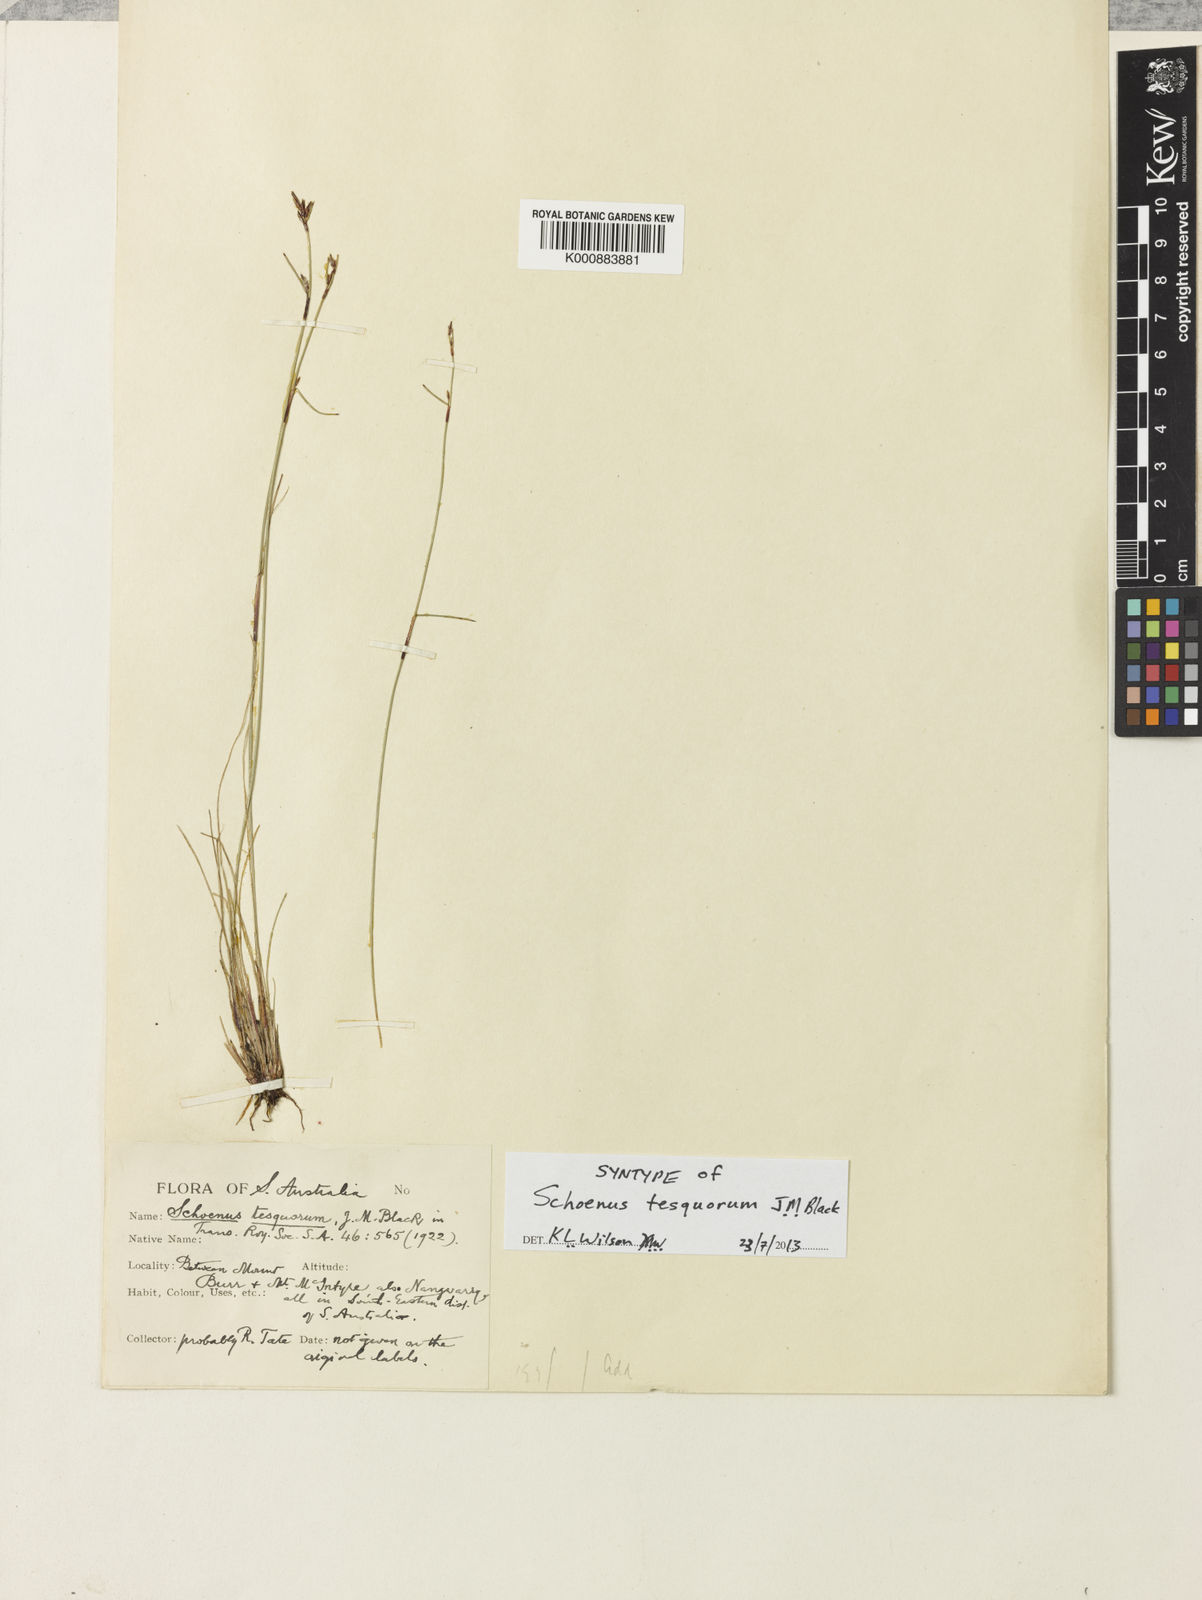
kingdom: Plantae
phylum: Tracheophyta
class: Liliopsida
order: Poales
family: Cyperaceae
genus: Schoenus
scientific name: Schoenus tesquorum
